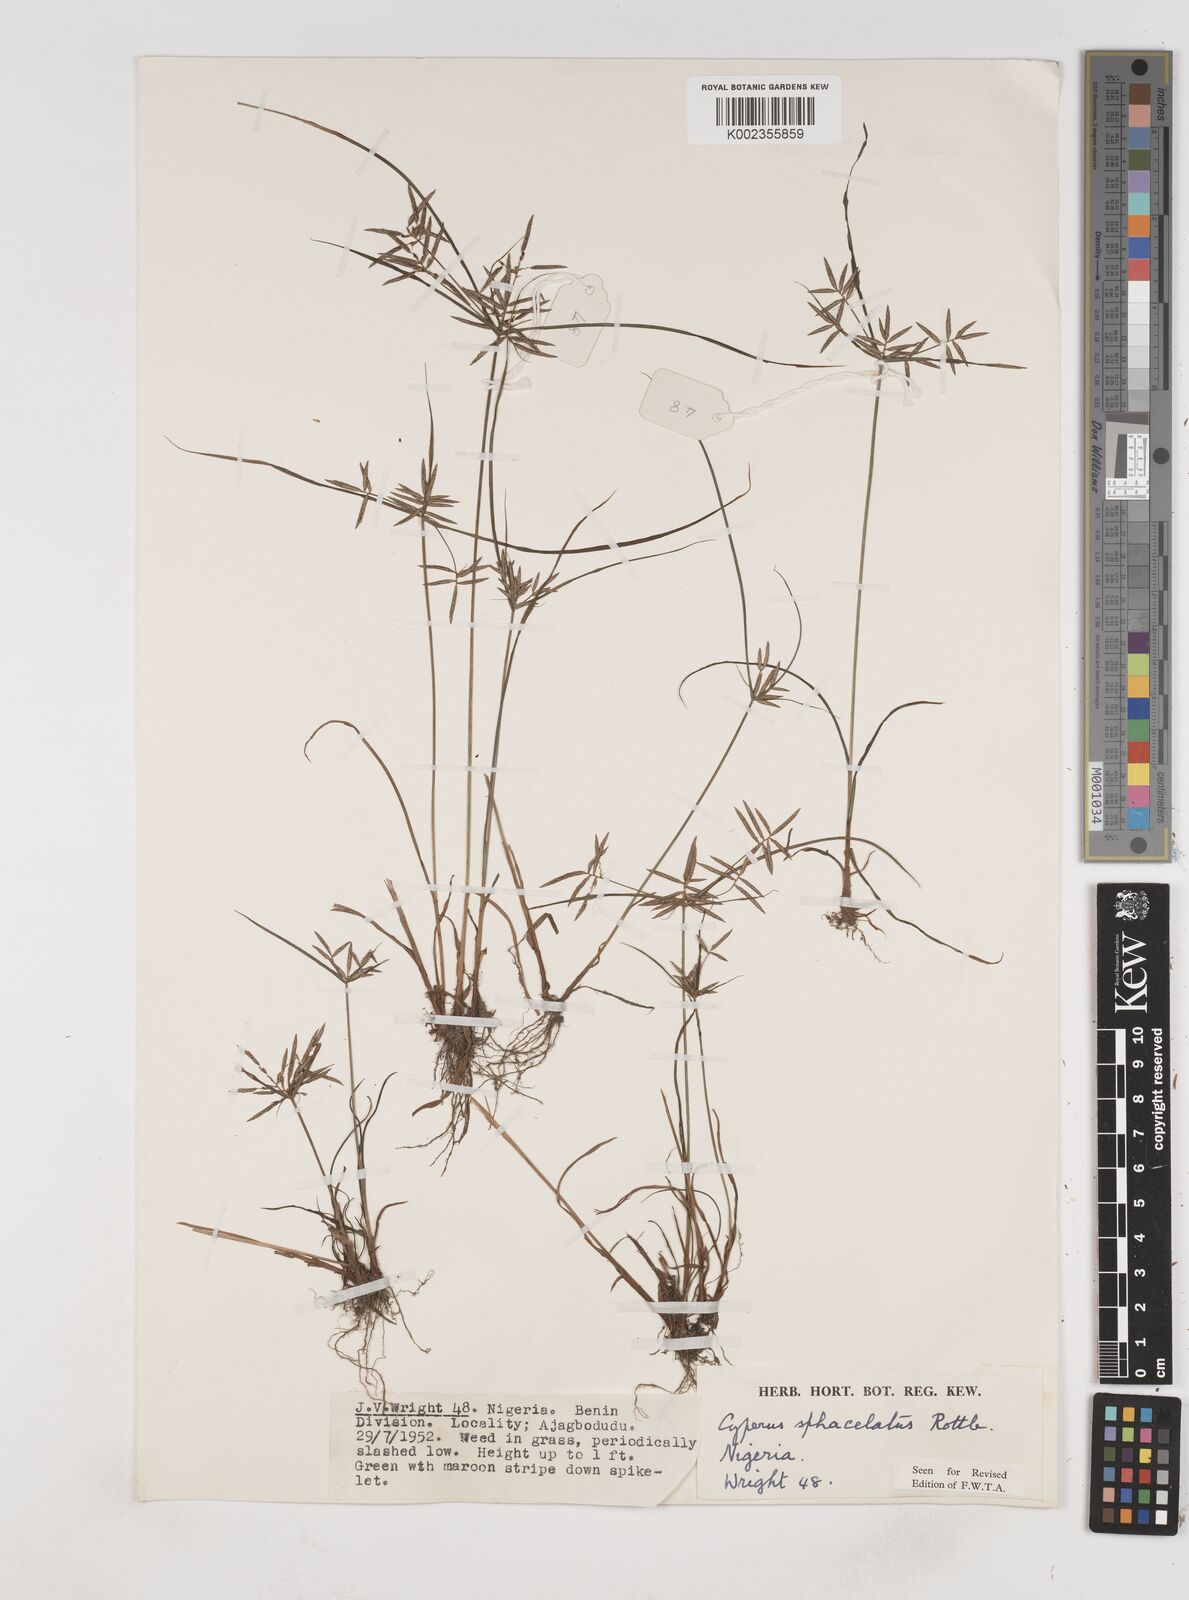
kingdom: Plantae
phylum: Tracheophyta
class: Liliopsida
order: Poales
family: Cyperaceae
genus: Cyperus
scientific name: Cyperus sphacelatus
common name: Roadside flatsedge
